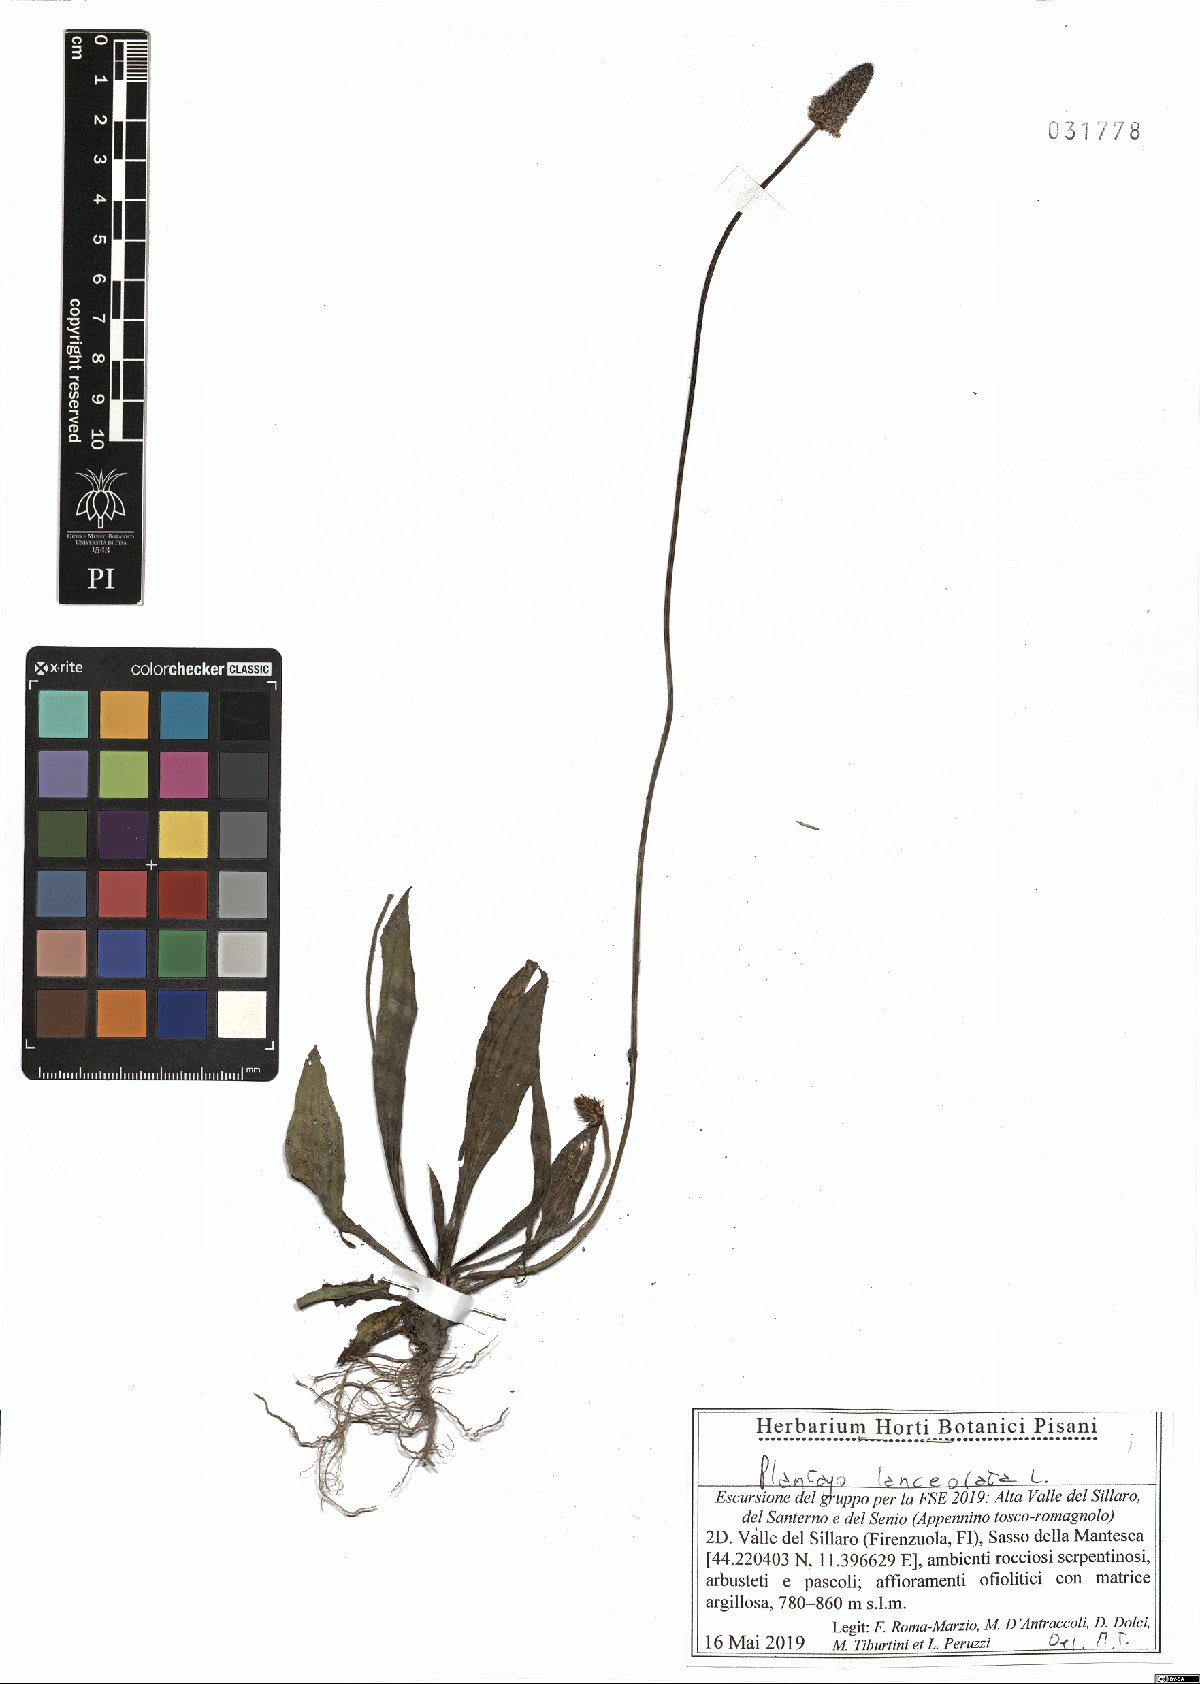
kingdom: Plantae
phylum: Tracheophyta
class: Magnoliopsida
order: Lamiales
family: Plantaginaceae
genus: Plantago
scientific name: Plantago lanceolata
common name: Ribwort plantain
